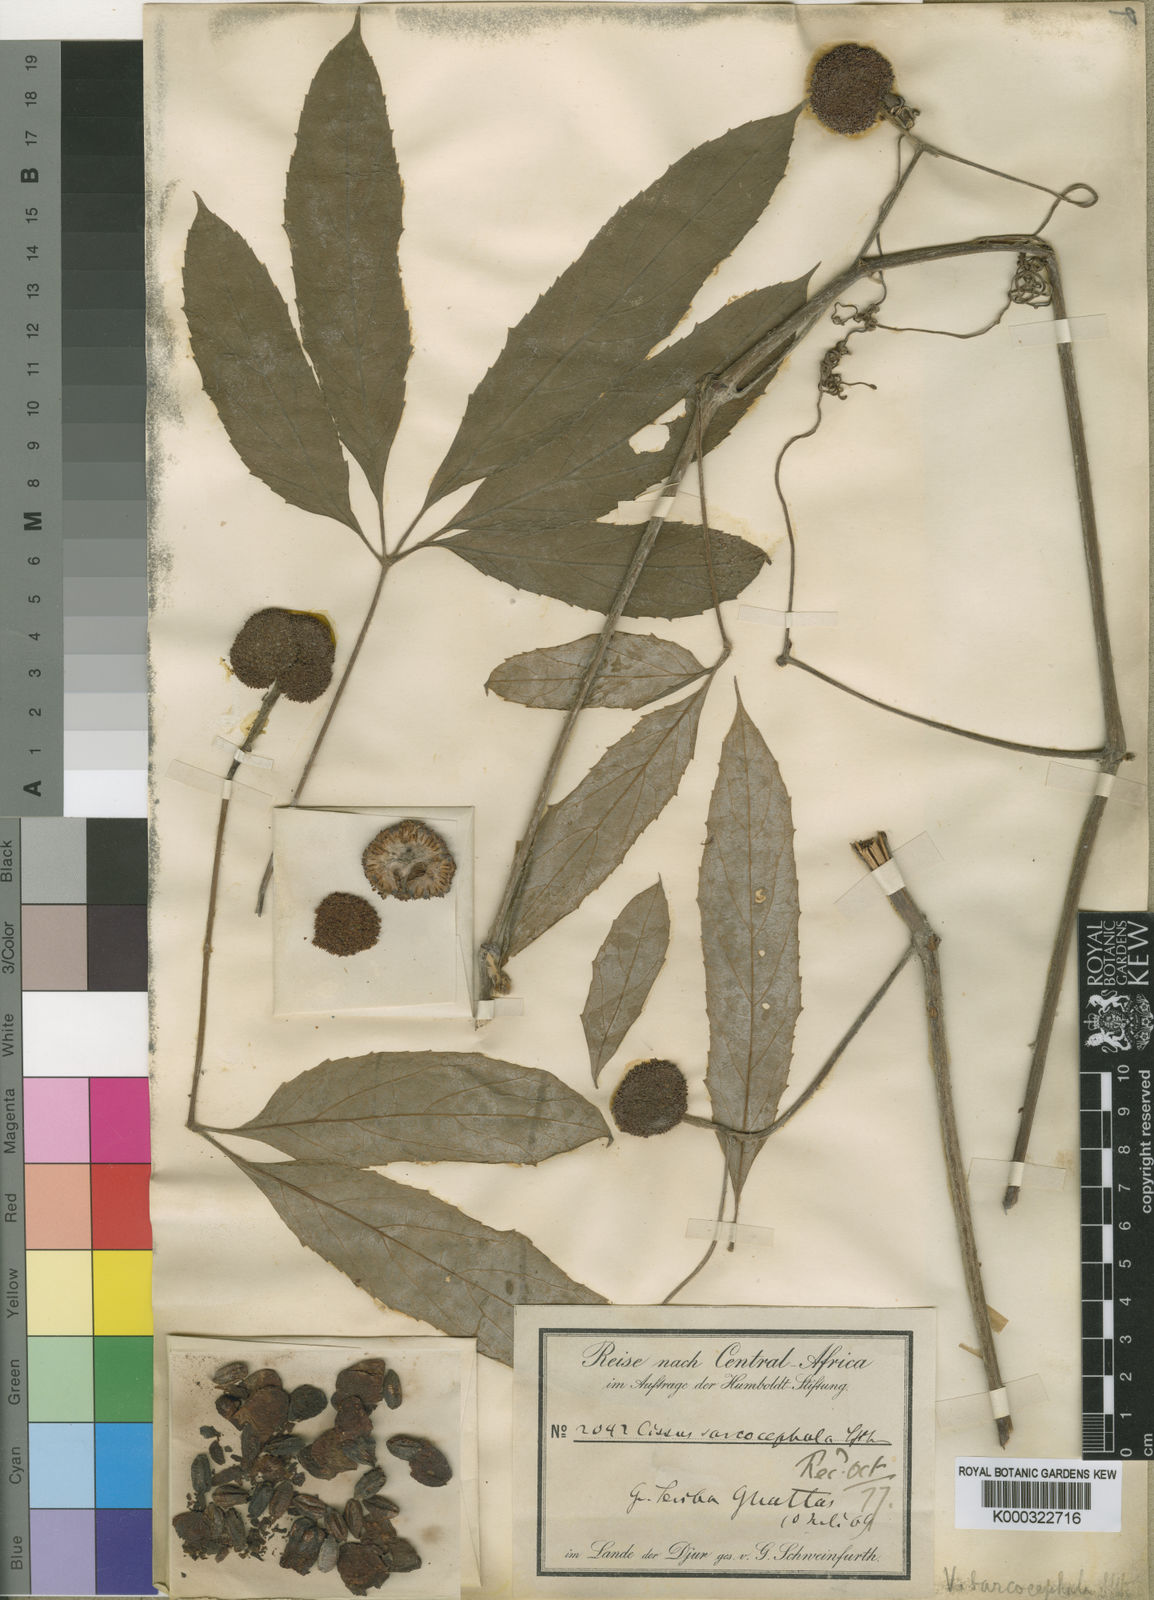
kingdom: Plantae
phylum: Tracheophyta
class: Magnoliopsida
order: Vitales
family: Vitaceae
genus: Ampelocissus
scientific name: Ampelocissus sarcocephala
